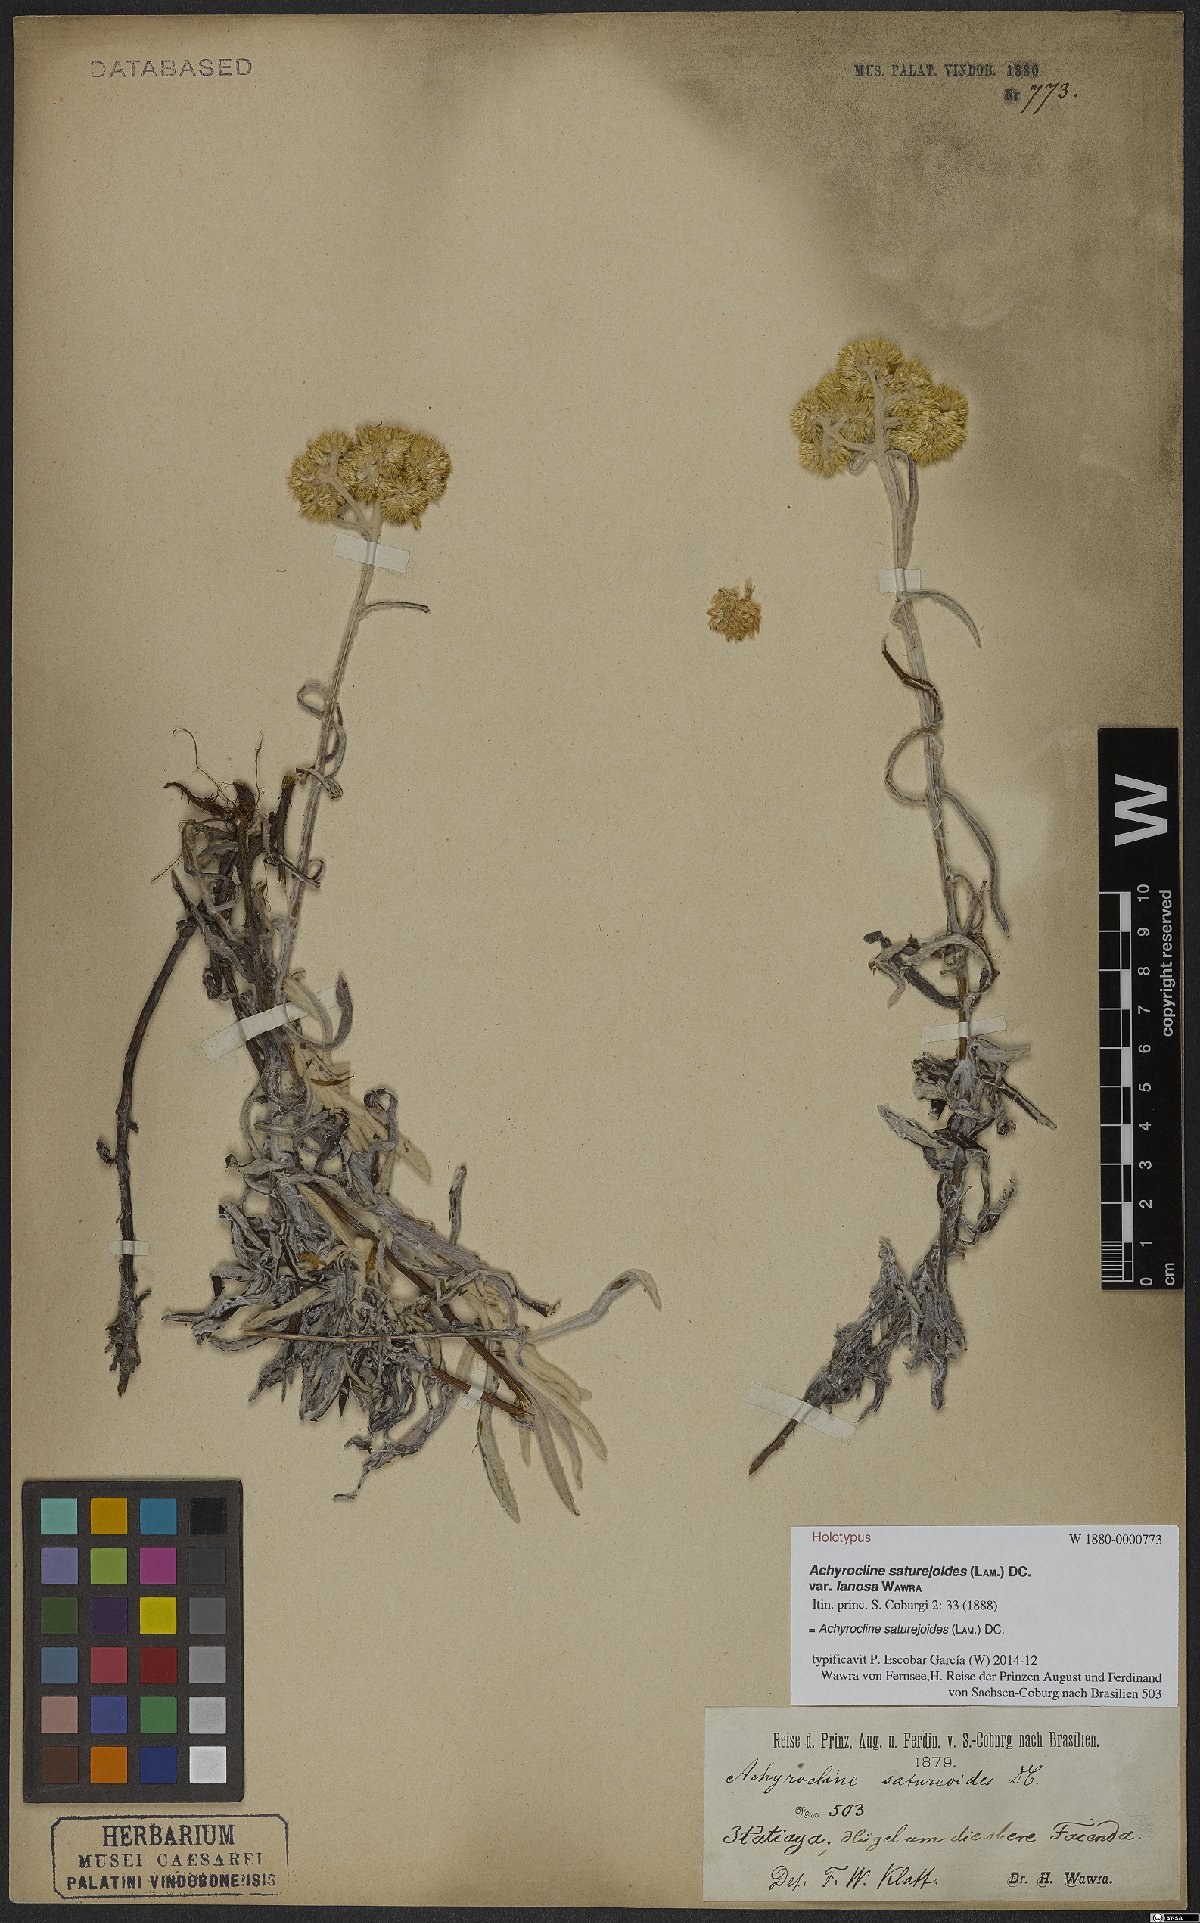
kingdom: Plantae
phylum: Tracheophyta
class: Magnoliopsida
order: Asterales
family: Asteraceae
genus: Achyrocline
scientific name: Achyrocline satureioides
